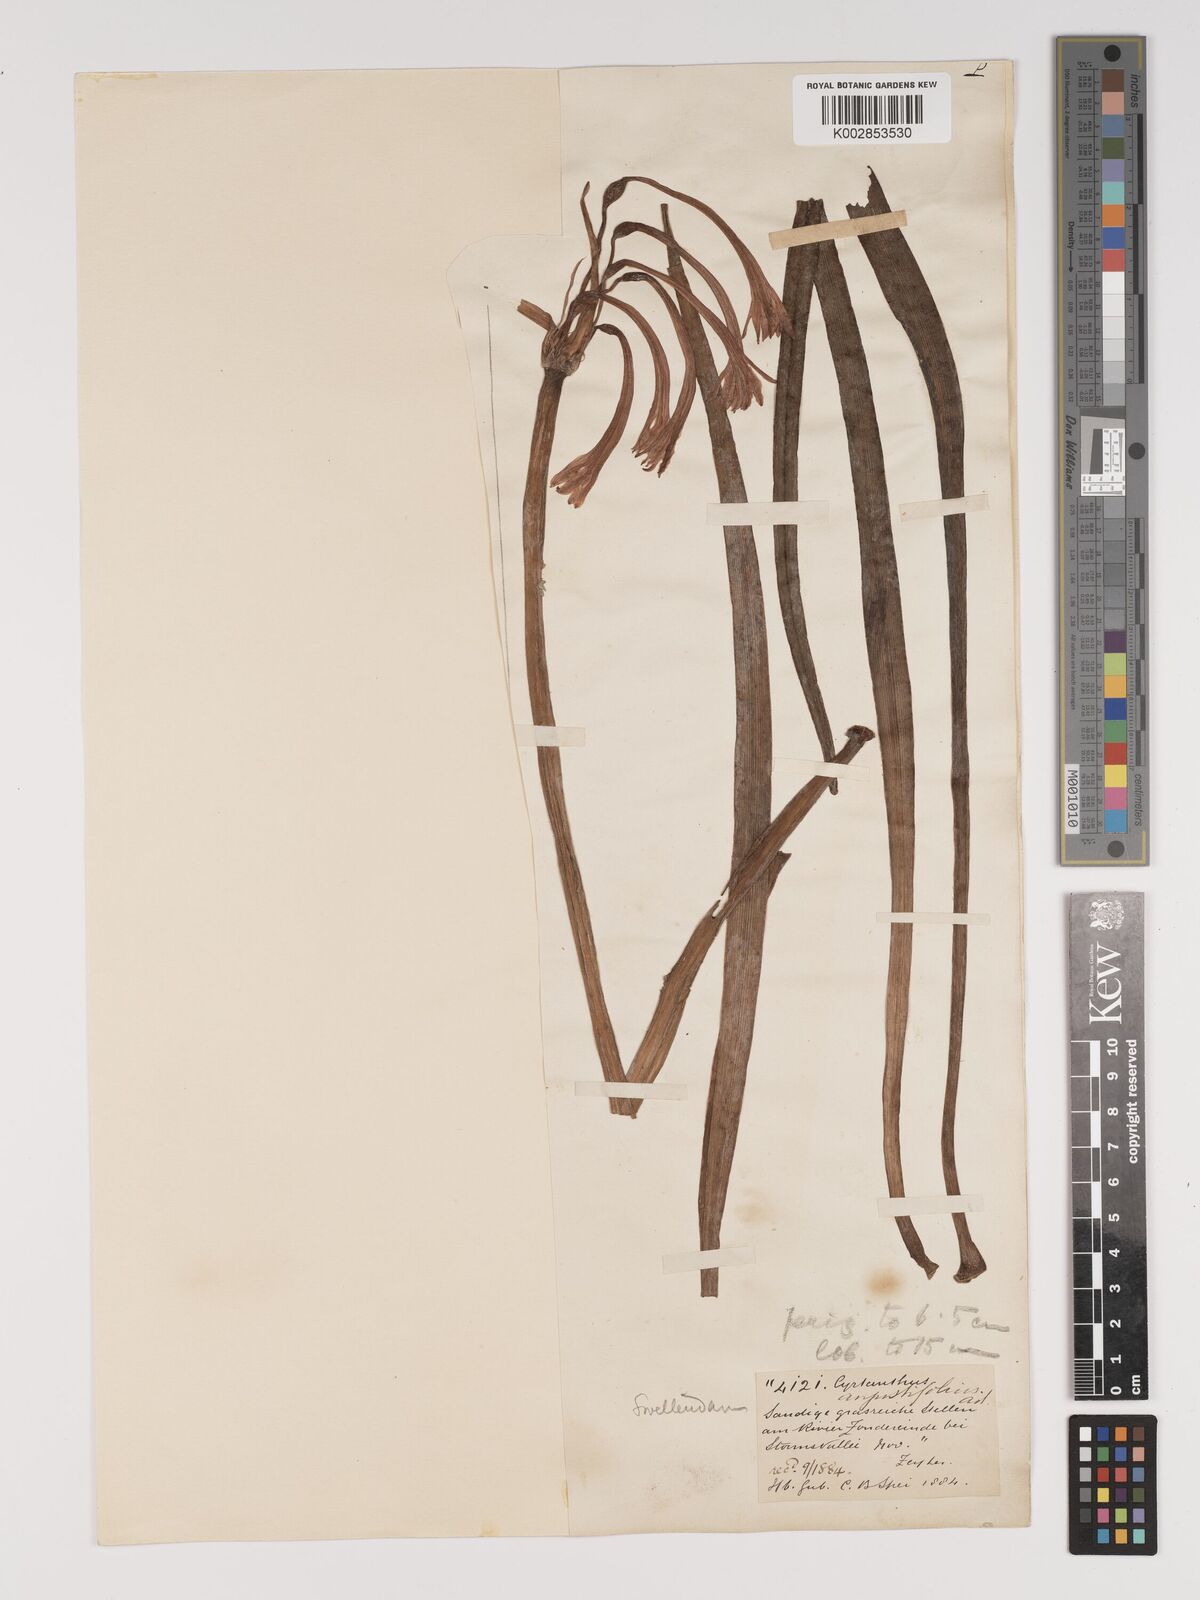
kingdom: Plantae
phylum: Tracheophyta
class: Liliopsida
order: Asparagales
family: Amaryllidaceae
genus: Cyrtanthus
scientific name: Cyrtanthus angustifolius
